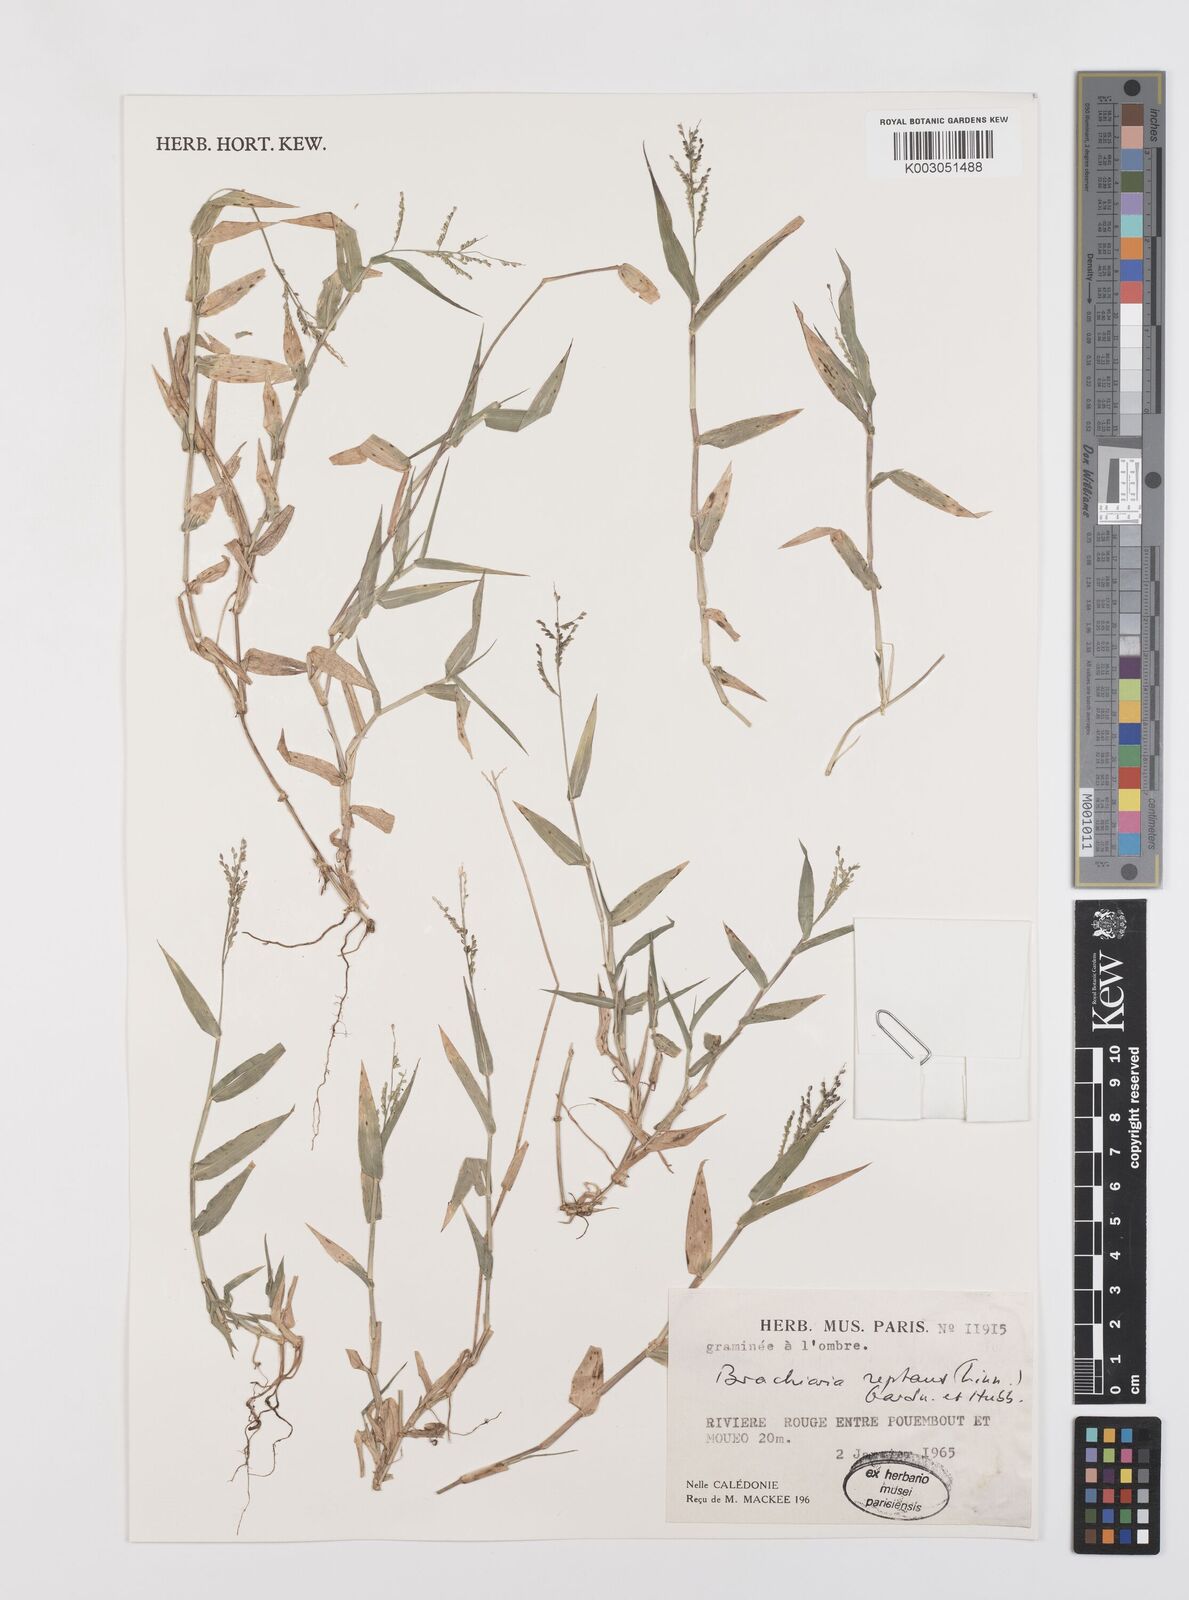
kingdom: Plantae
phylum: Tracheophyta
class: Liliopsida
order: Poales
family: Poaceae
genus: Urochloa
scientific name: Urochloa reptans
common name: Sprawling signalgrass
